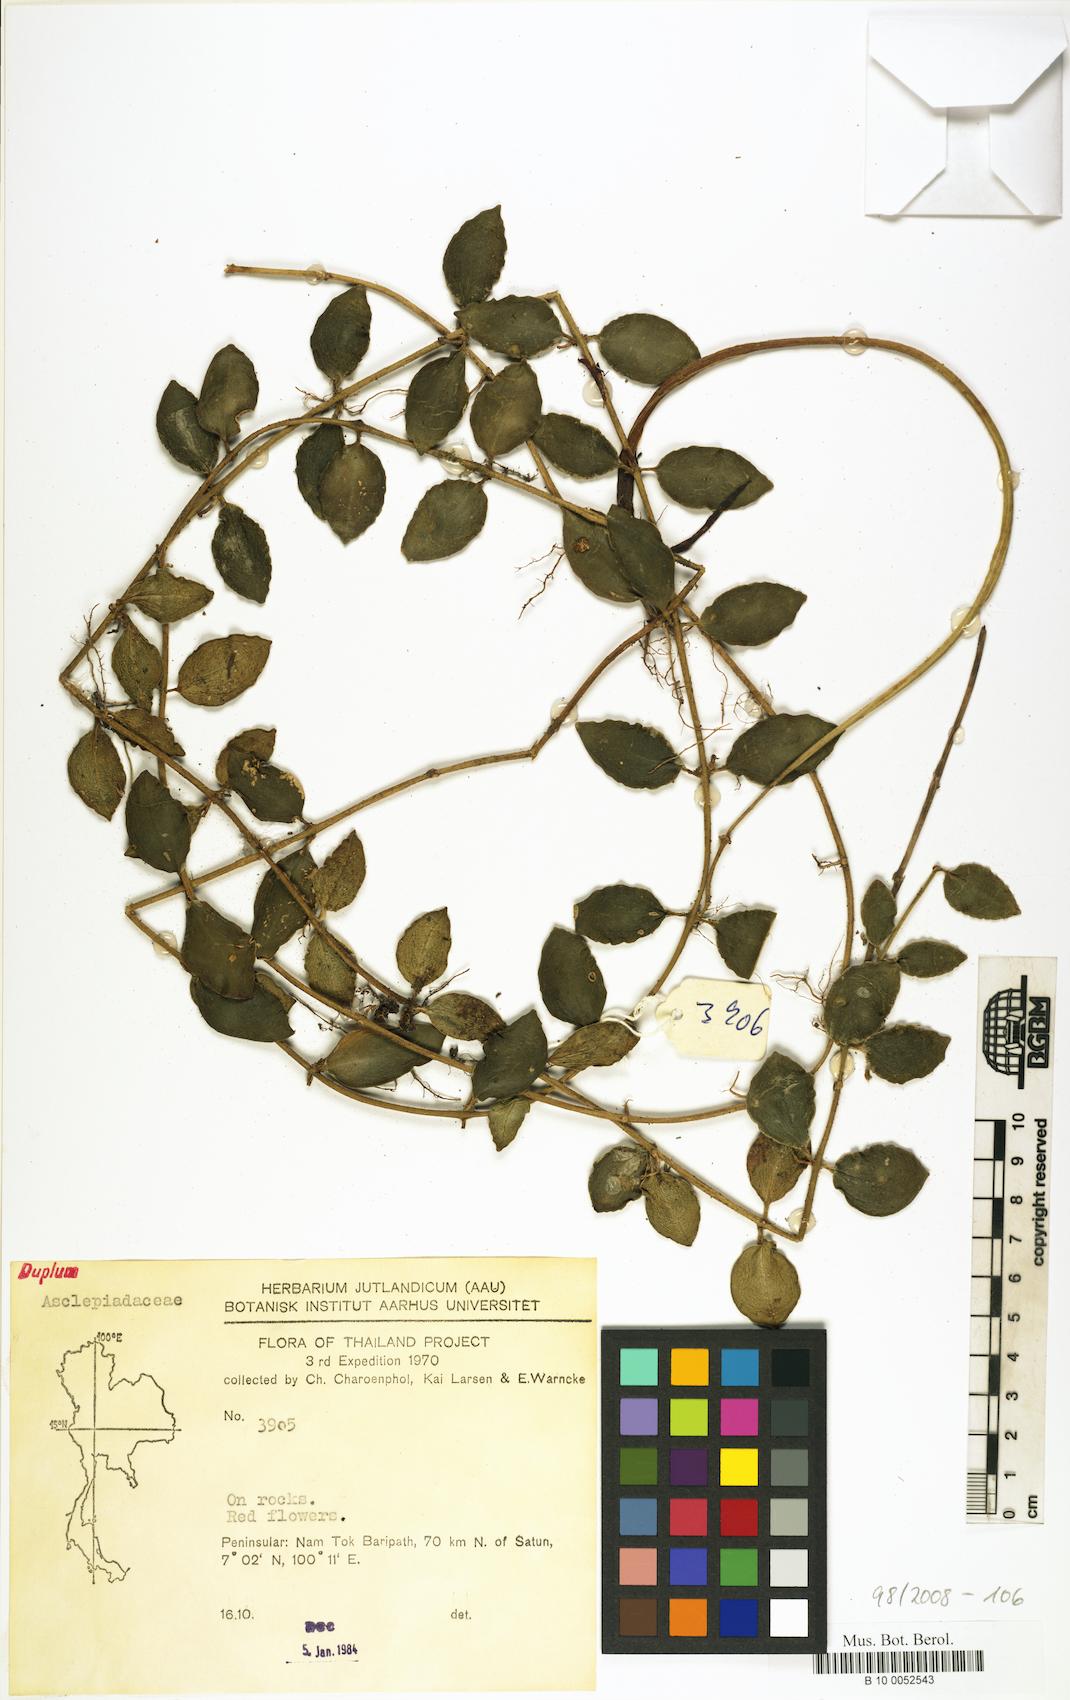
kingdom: Plantae
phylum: Tracheophyta
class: Magnoliopsida
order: Gentianales
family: Apocynaceae
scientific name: Apocynaceae
